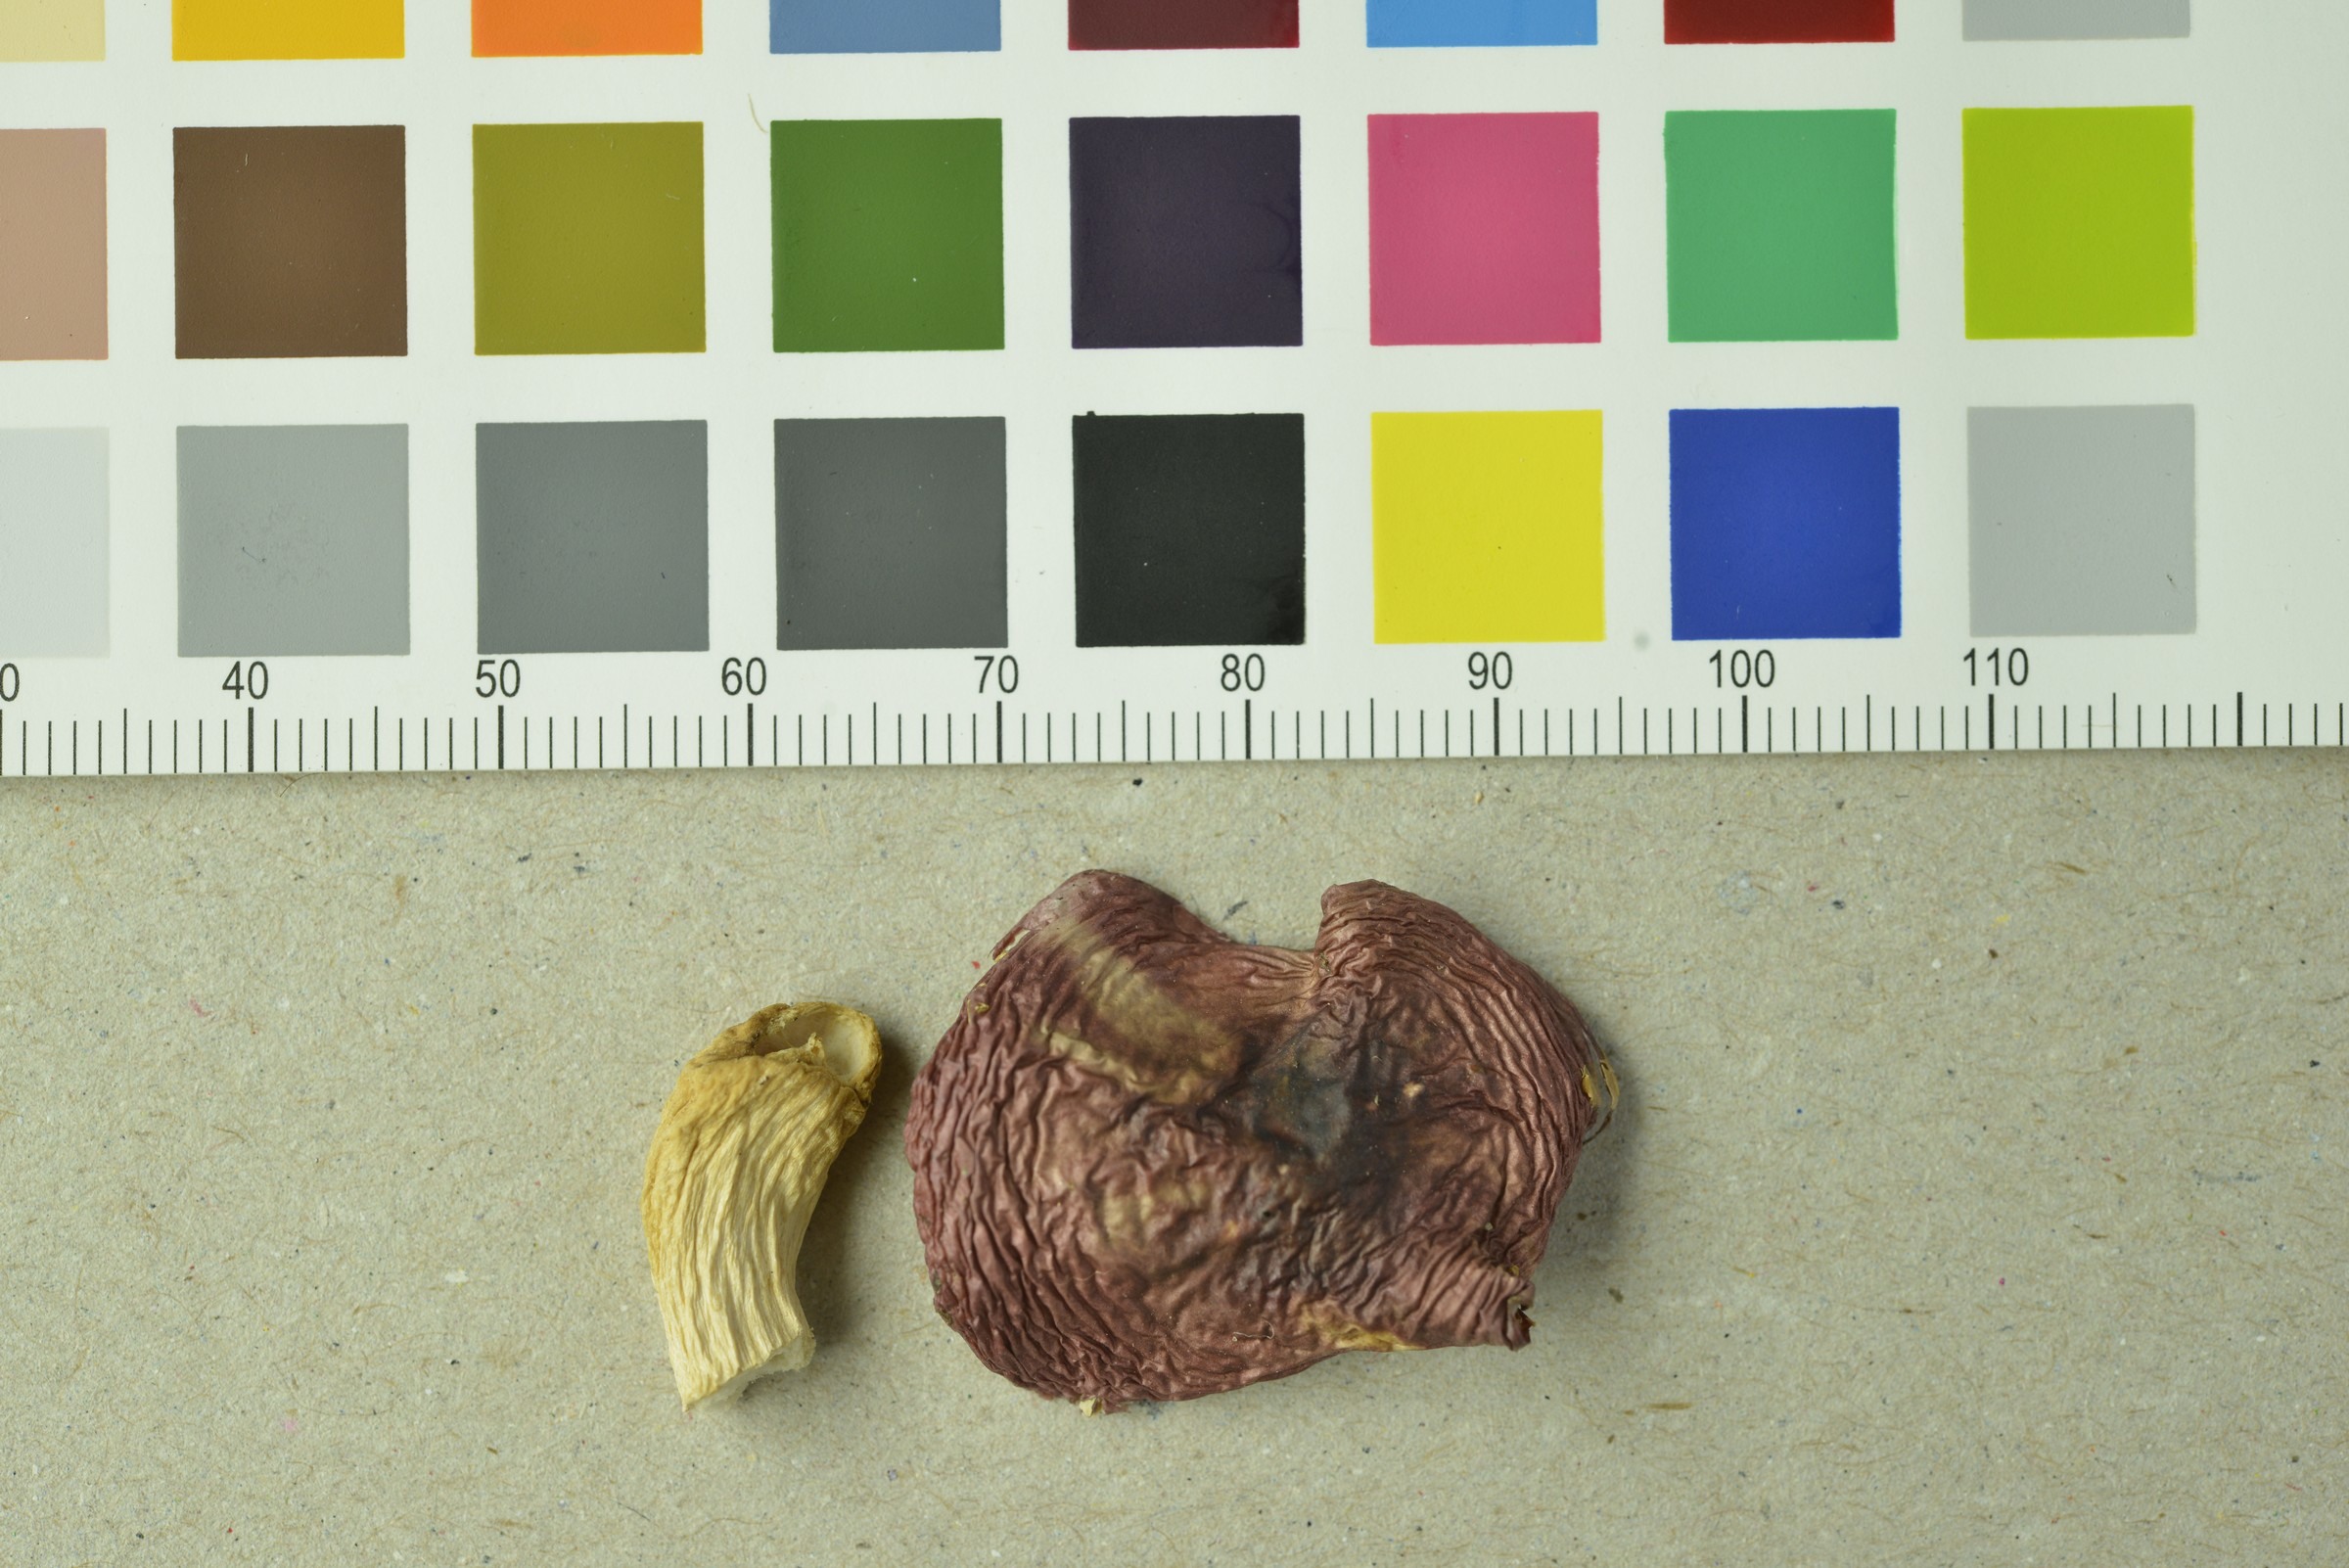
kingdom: Fungi
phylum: Basidiomycota
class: Agaricomycetes
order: Russulales
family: Russulaceae
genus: Russula
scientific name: Russula saliceticola
